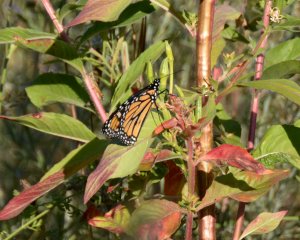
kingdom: Animalia
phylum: Arthropoda
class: Insecta
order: Lepidoptera
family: Nymphalidae
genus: Danaus
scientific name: Danaus plexippus
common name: Monarch
